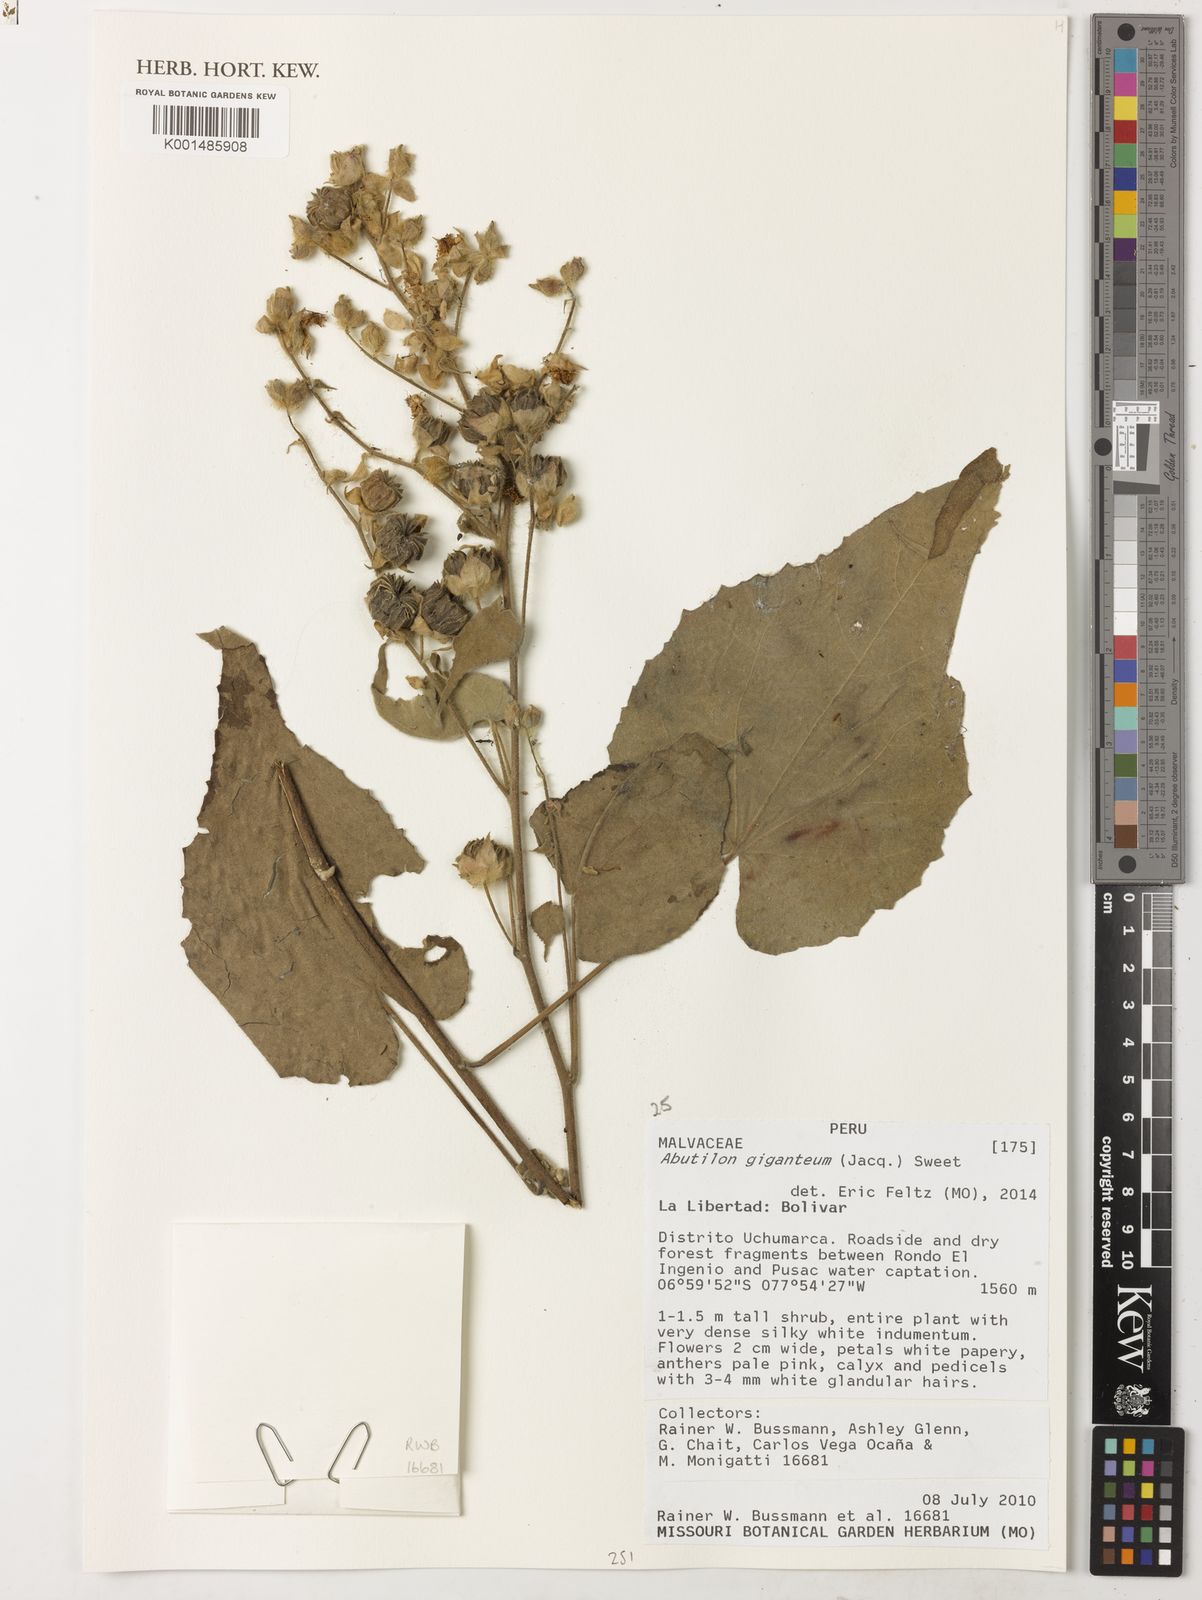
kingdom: Plantae
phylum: Tracheophyta
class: Magnoliopsida
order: Malvales
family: Malvaceae
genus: Abutilon
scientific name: Abutilon giganteum
